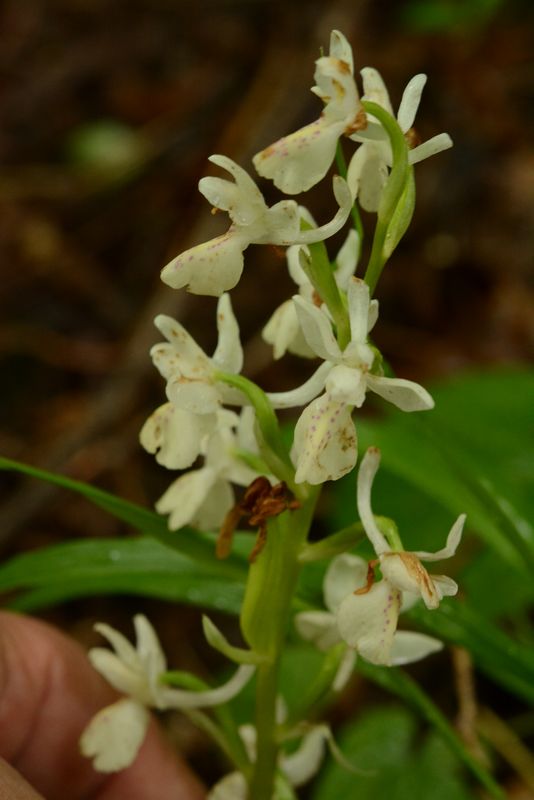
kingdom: Plantae
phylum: Tracheophyta
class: Liliopsida
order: Asparagales
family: Orchidaceae
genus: Orchis
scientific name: Orchis provincialis
